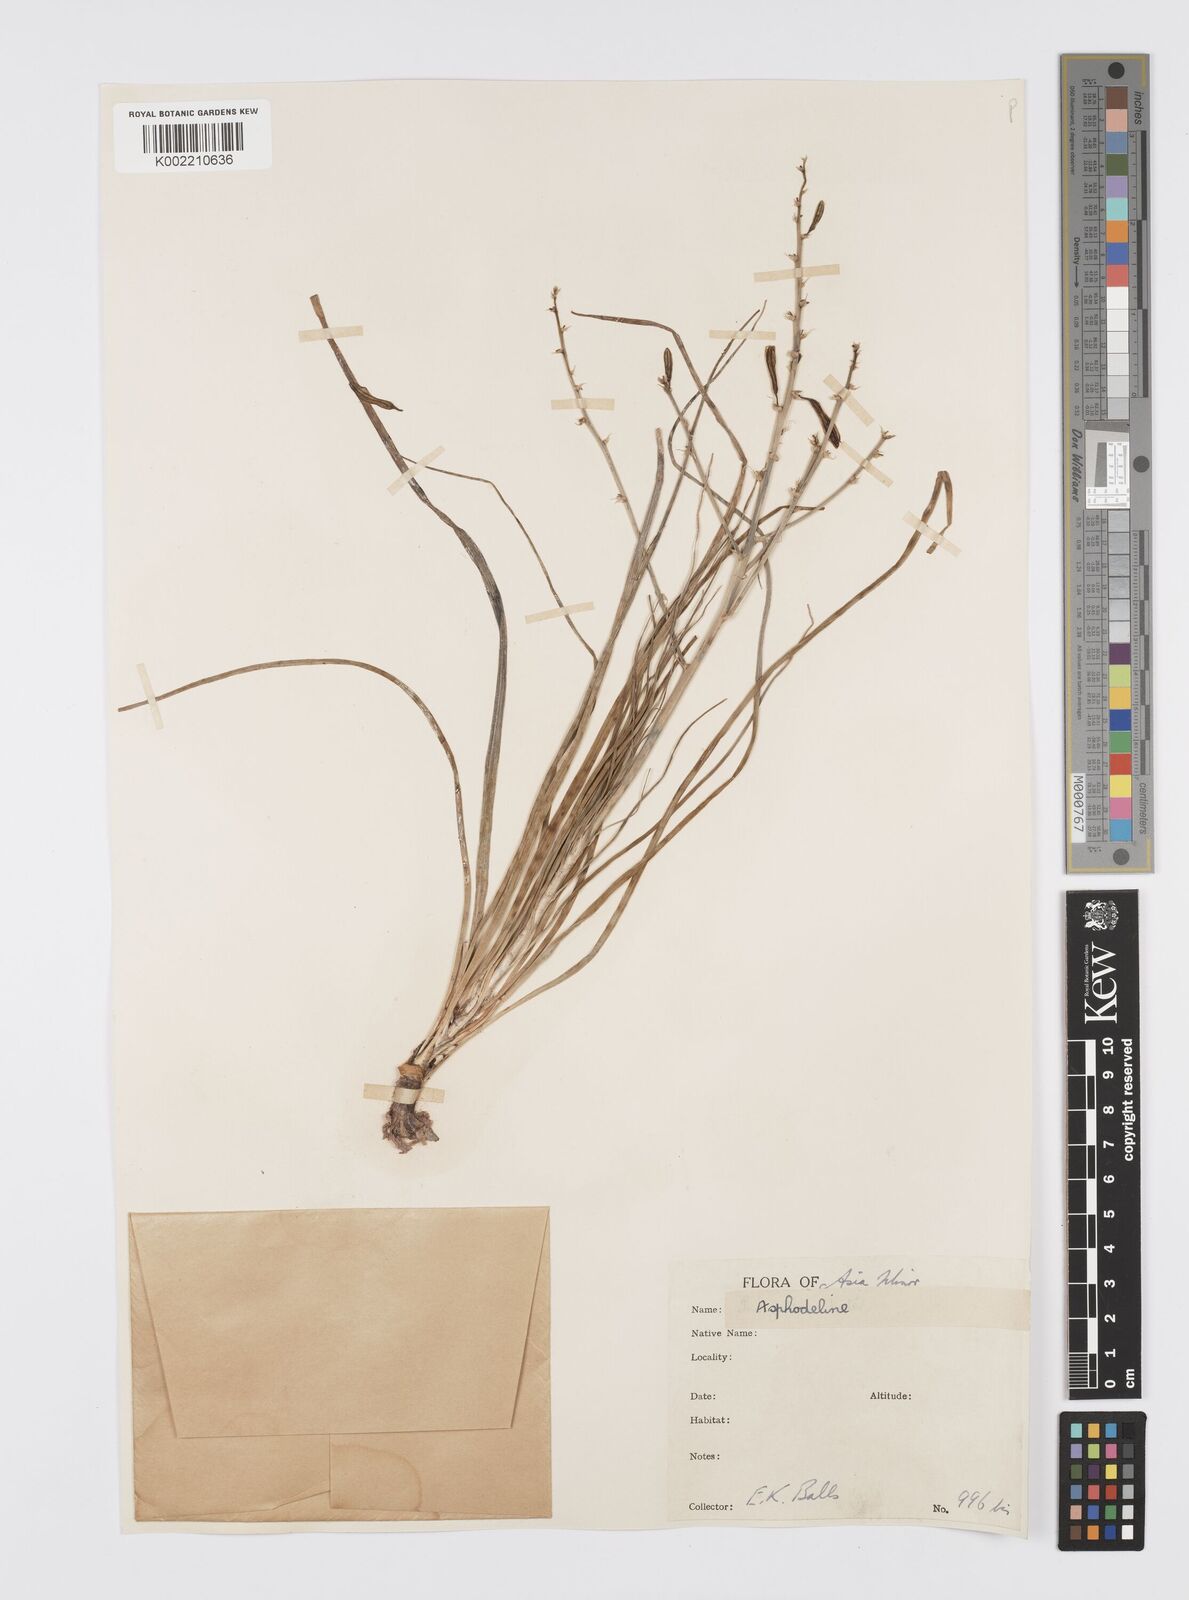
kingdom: Plantae
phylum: Tracheophyta
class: Liliopsida
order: Asparagales
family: Asphodelaceae
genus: Asphodeline
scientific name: Asphodeline brevicaulis
